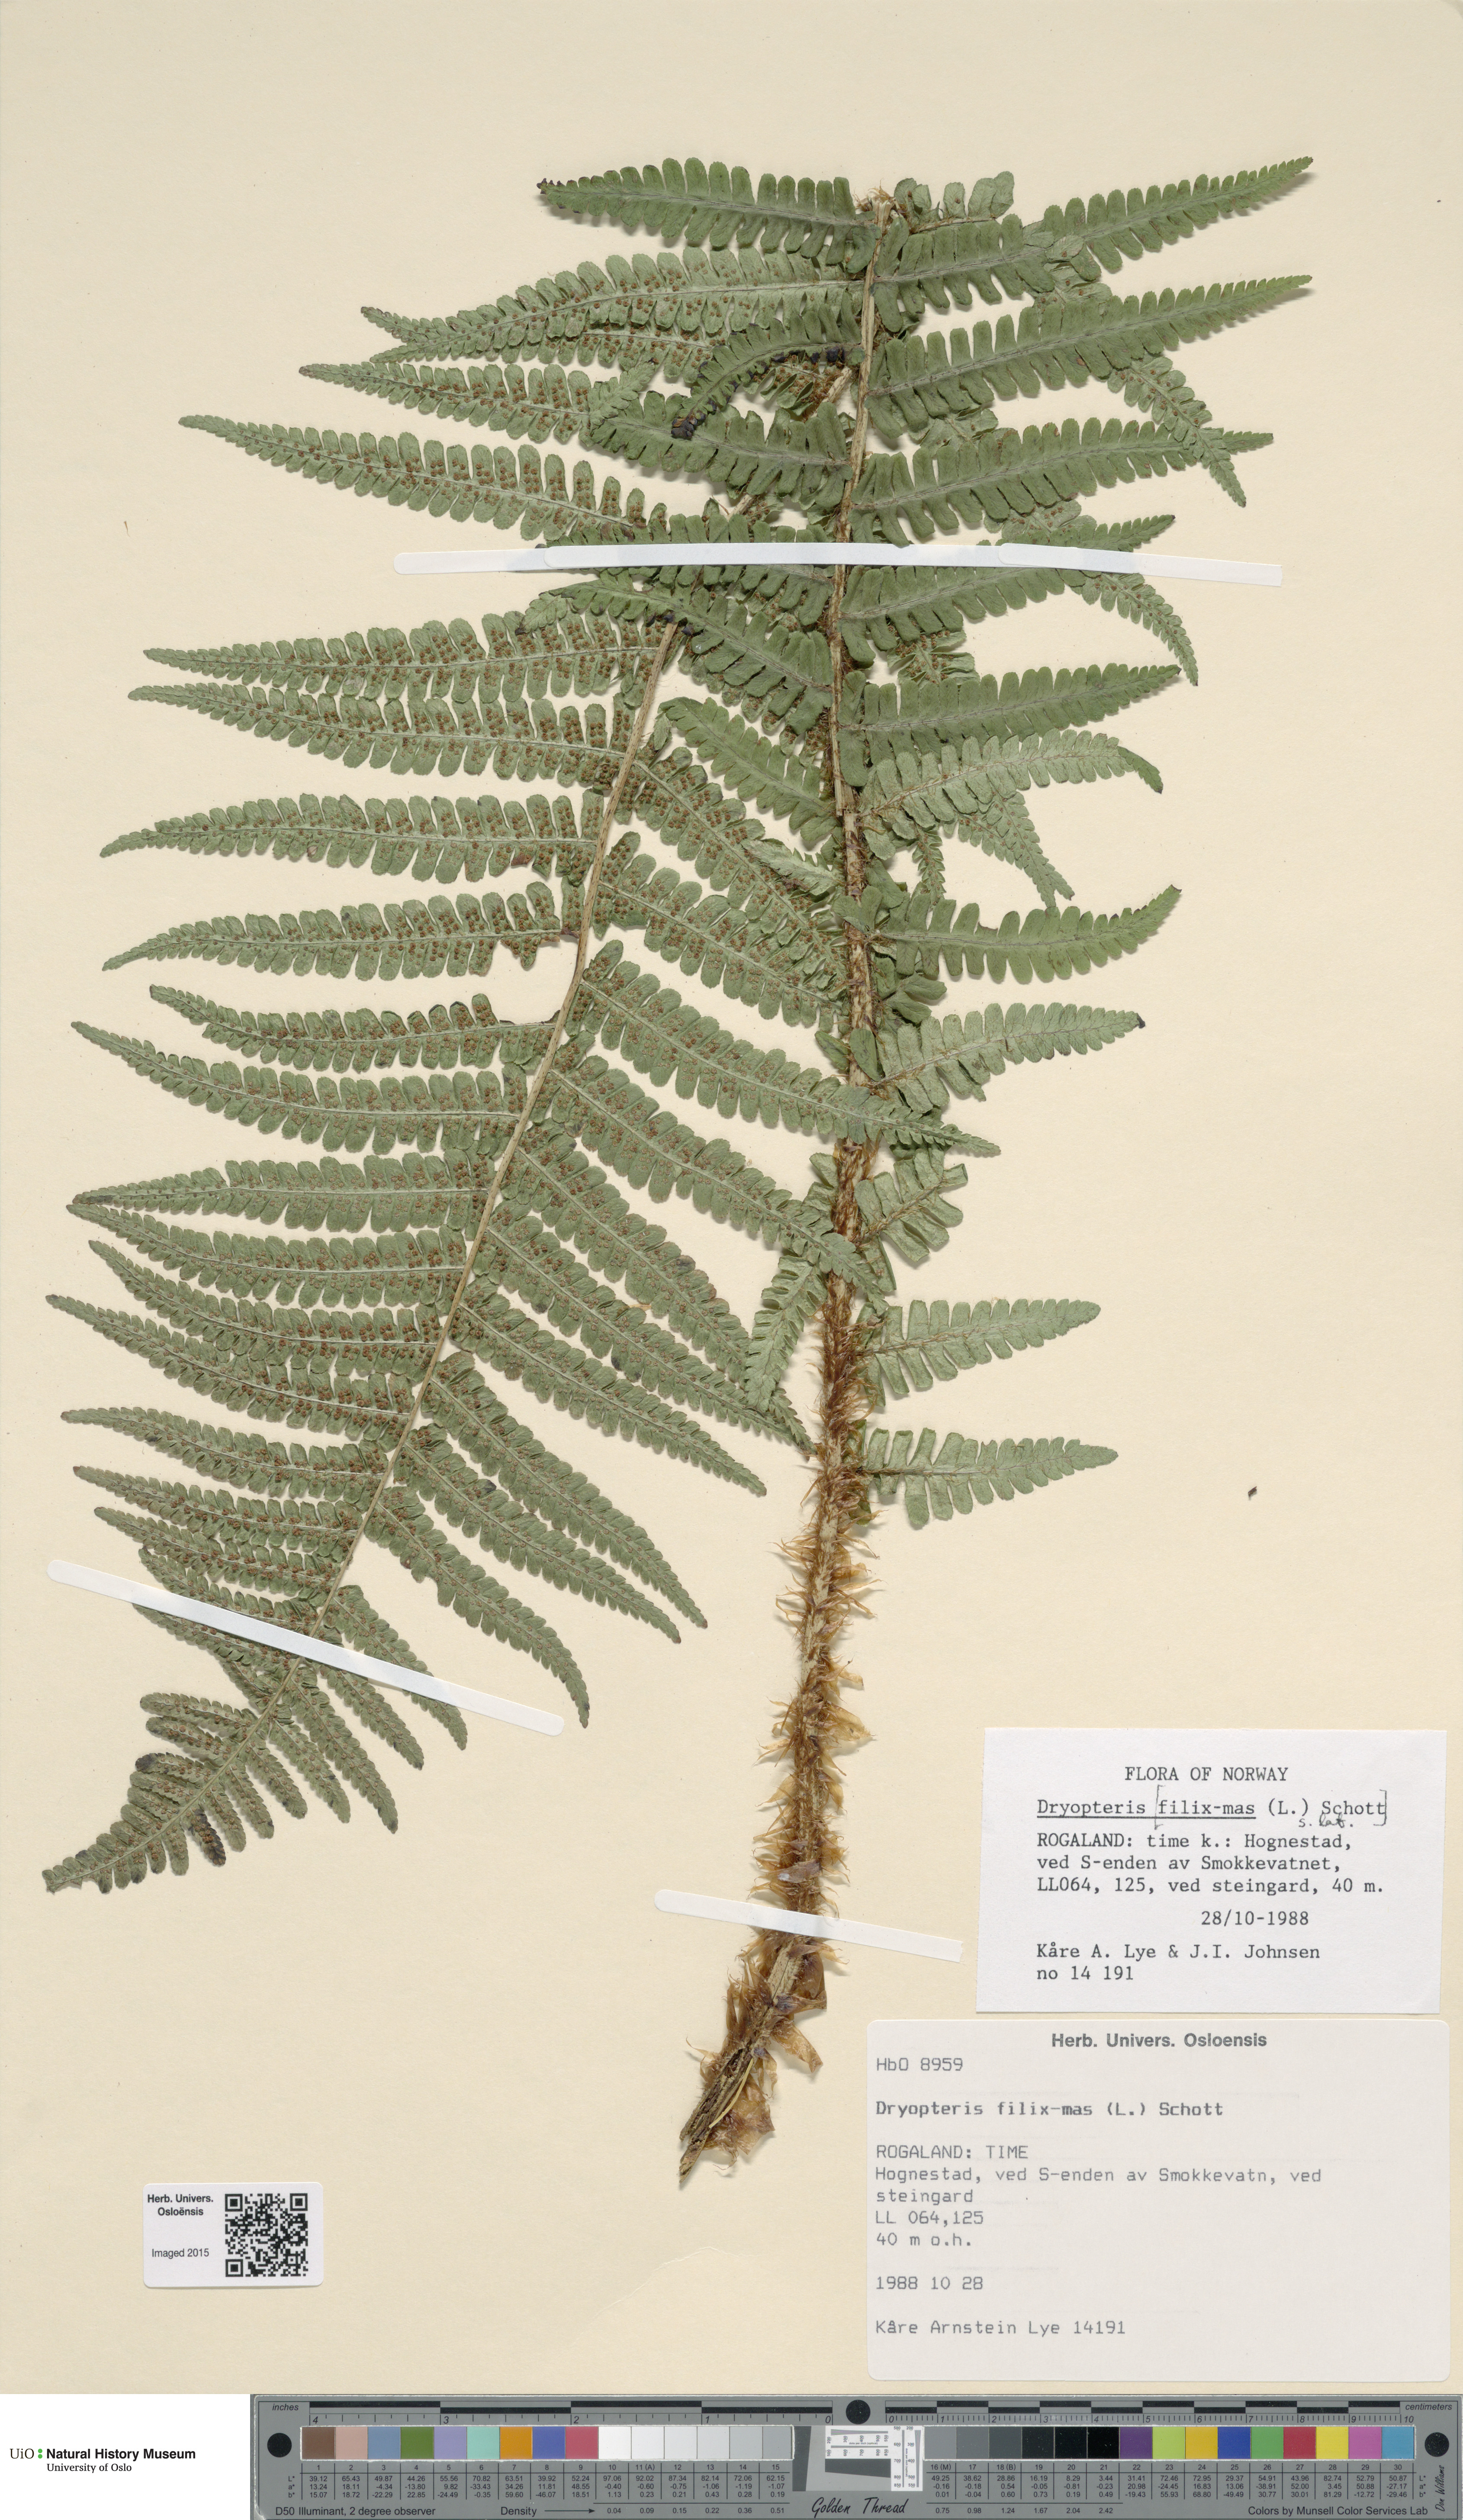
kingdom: Plantae
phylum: Tracheophyta
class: Polypodiopsida
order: Polypodiales
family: Dryopteridaceae
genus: Dryopteris
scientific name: Dryopteris filix-mas
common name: Male fern
